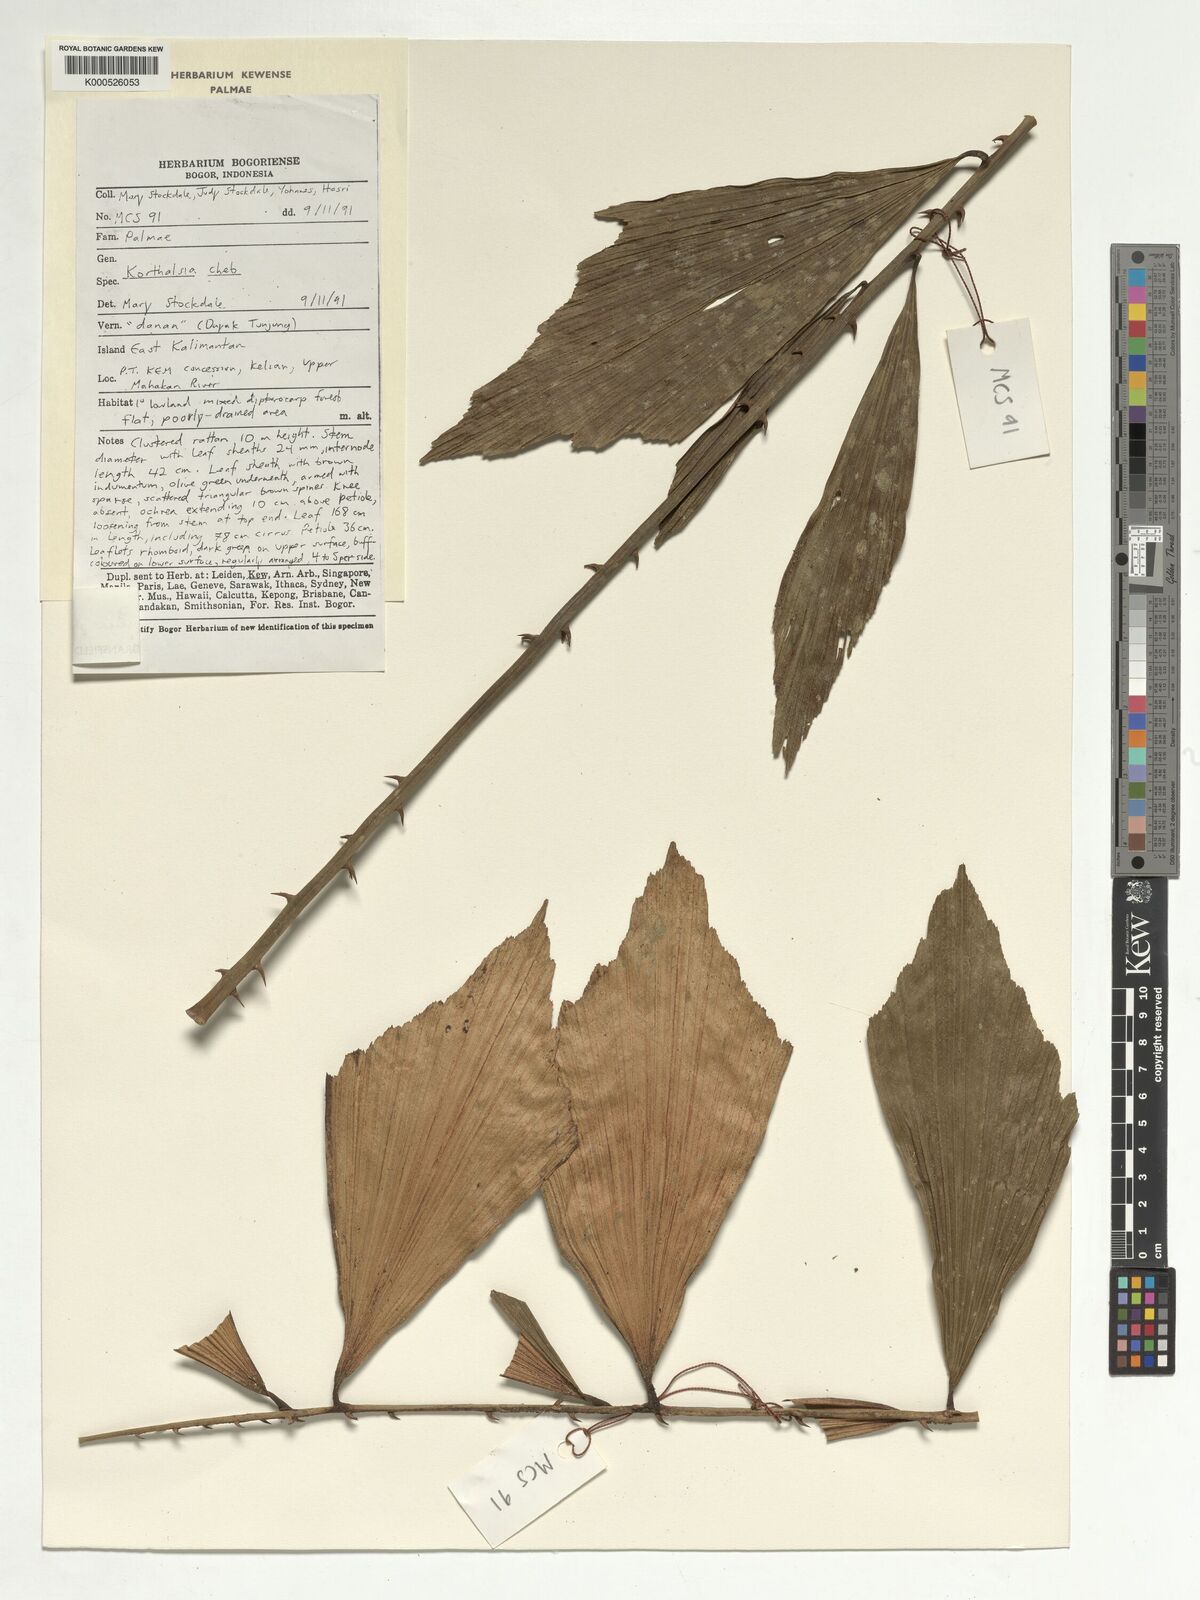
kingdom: Plantae
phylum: Tracheophyta
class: Liliopsida
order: Arecales
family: Arecaceae
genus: Korthalsia
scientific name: Korthalsia ferox
